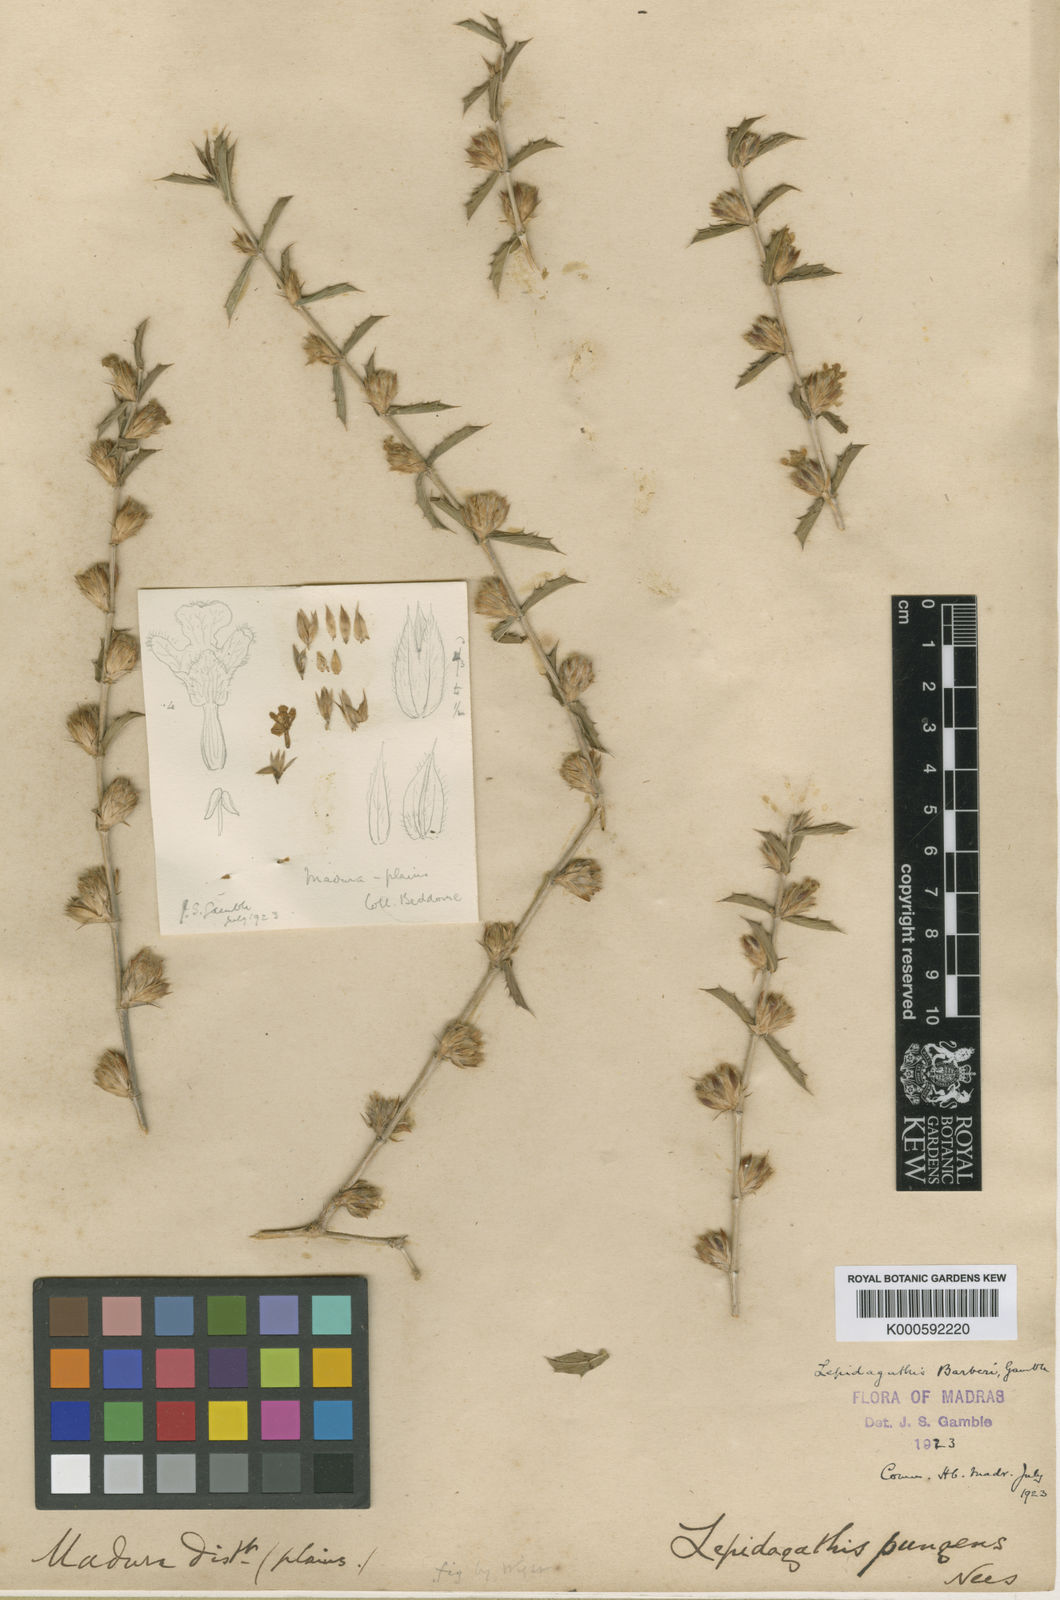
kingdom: Plantae
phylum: Tracheophyta
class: Magnoliopsida
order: Lamiales
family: Acanthaceae
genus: Lepidagathis
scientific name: Lepidagathis barberi
